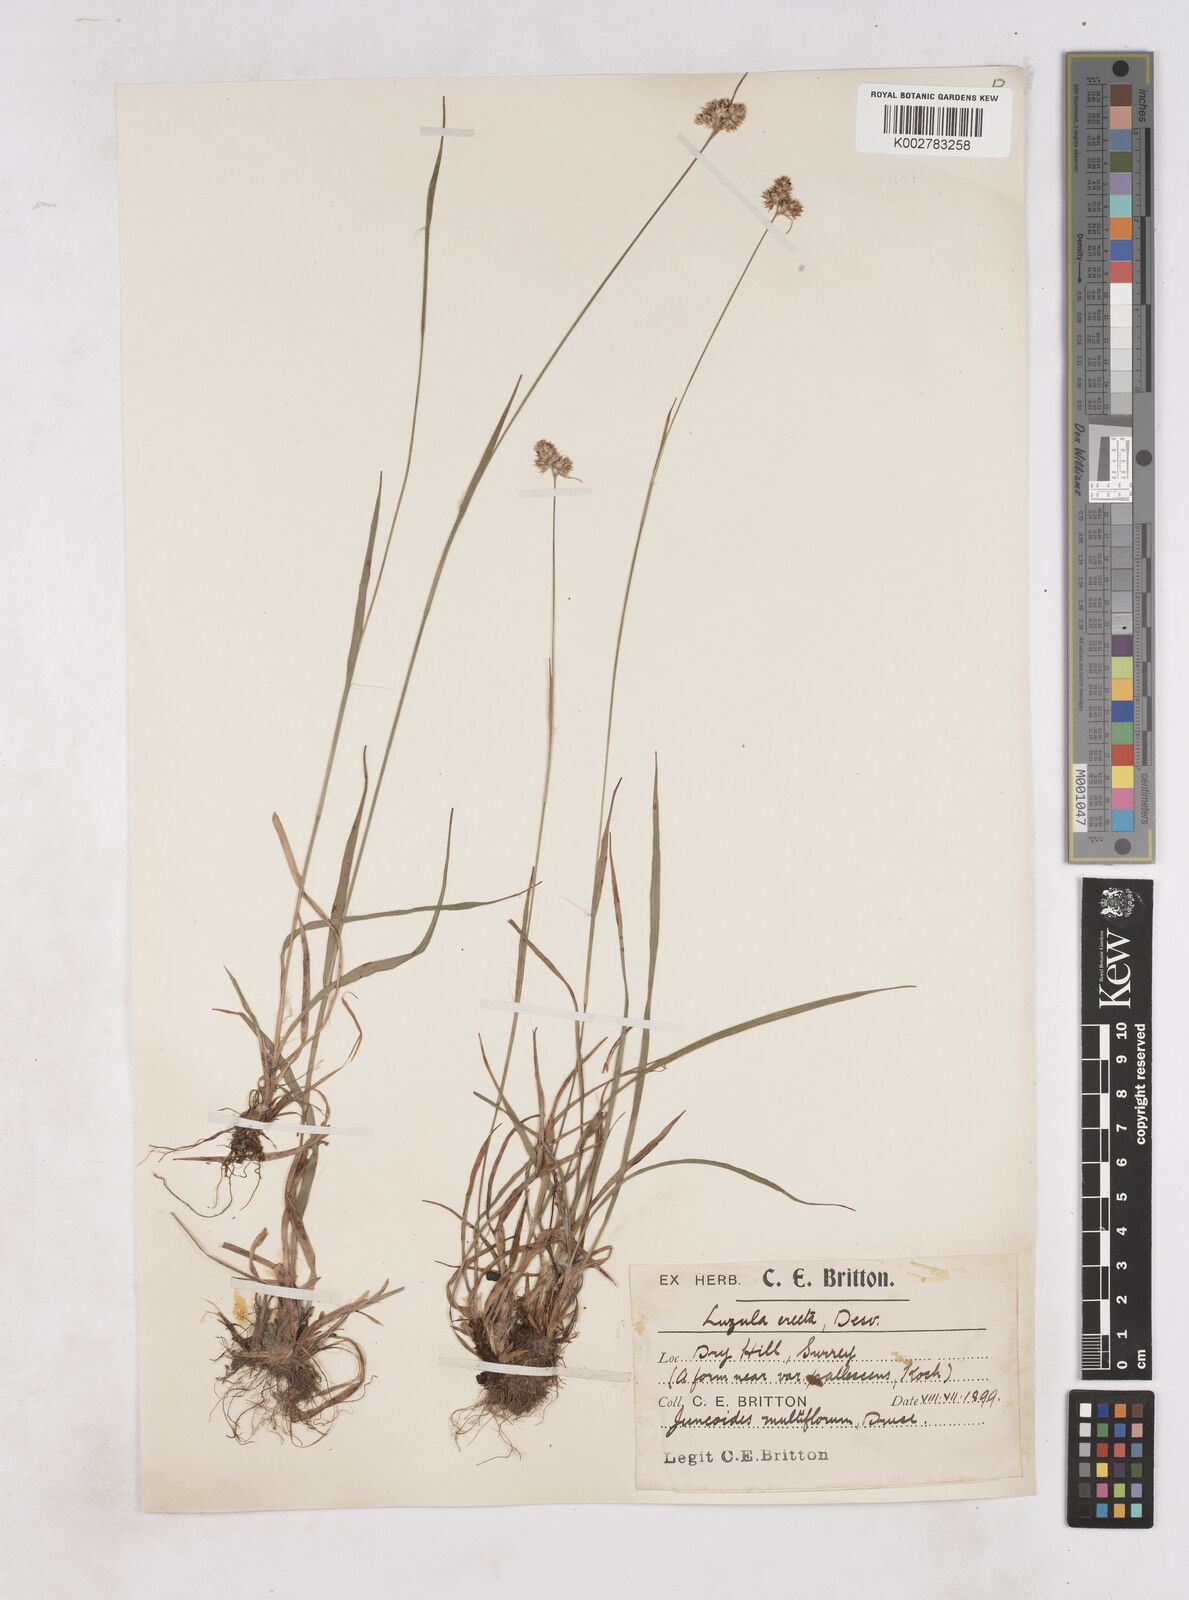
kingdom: Plantae
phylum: Tracheophyta
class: Liliopsida
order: Poales
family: Juncaceae
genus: Luzula
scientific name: Luzula multiflora
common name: Heath wood-rush
